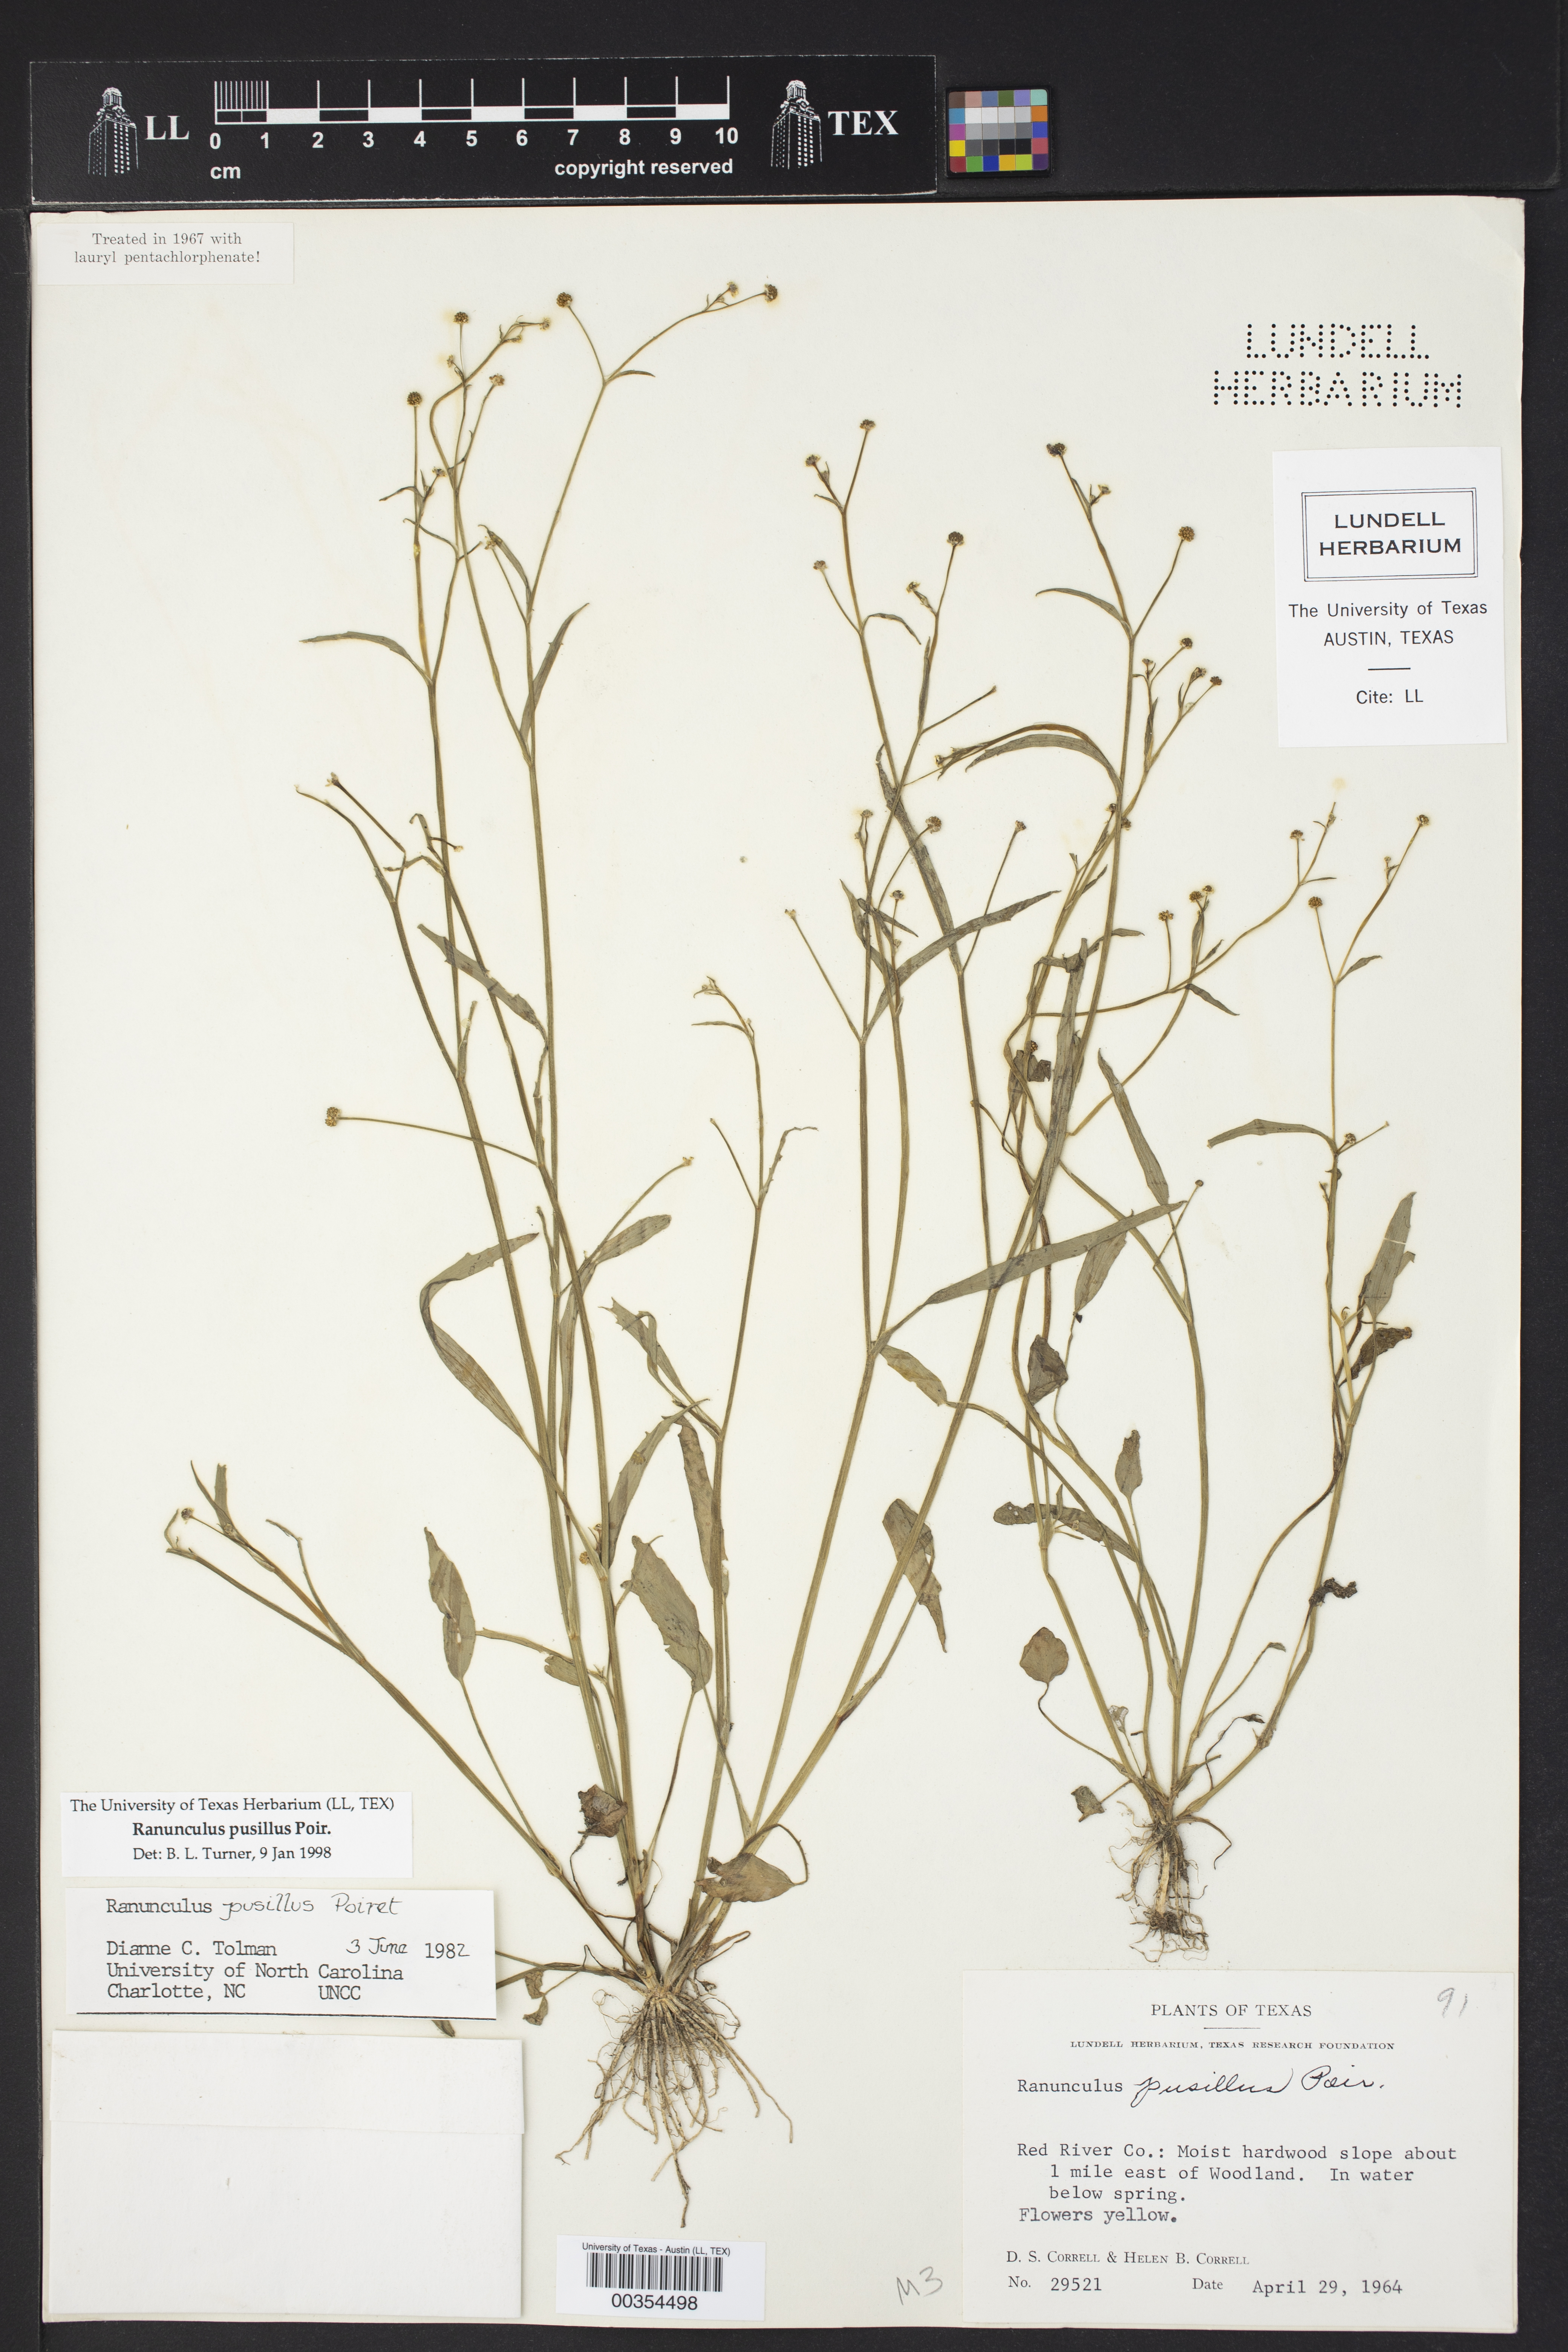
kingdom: Plantae
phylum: Tracheophyta
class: Magnoliopsida
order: Ranunculales
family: Ranunculaceae
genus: Ranunculus
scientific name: Ranunculus pusillus
